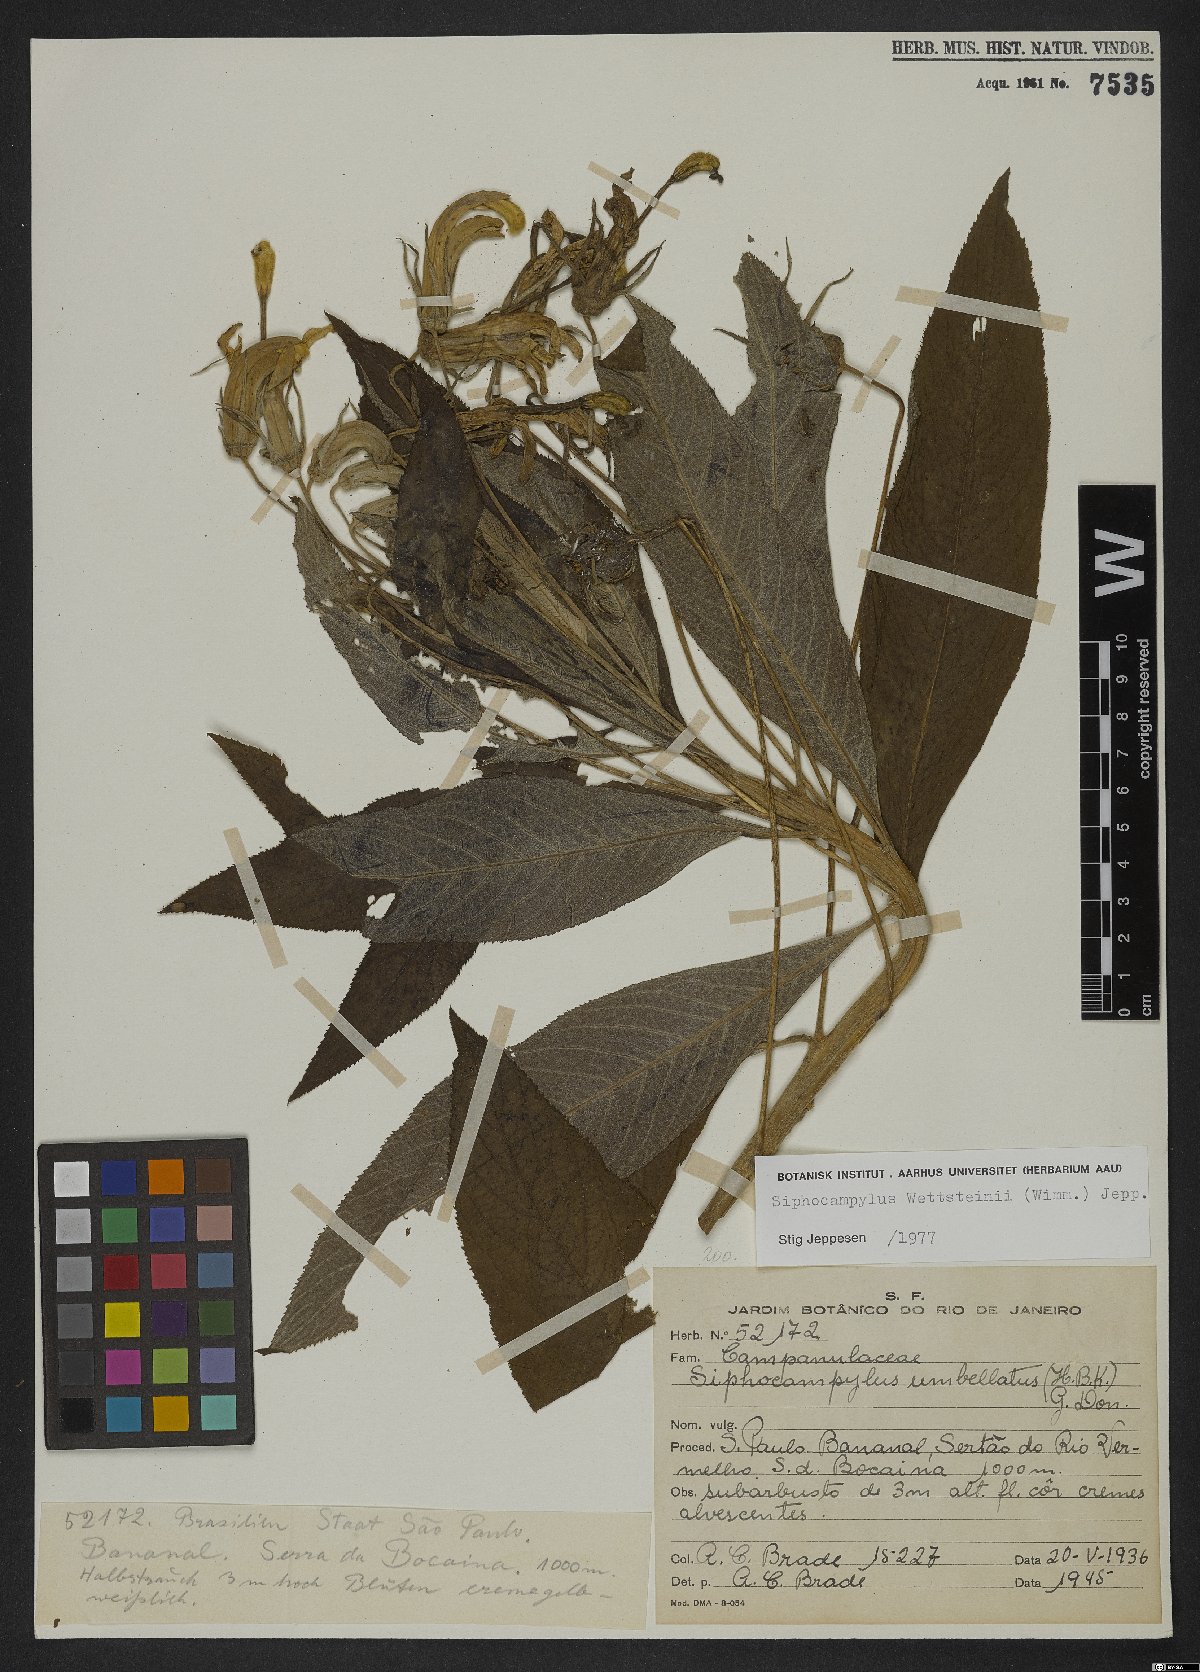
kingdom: Plantae
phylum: Tracheophyta
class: Magnoliopsida
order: Asterales
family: Campanulaceae
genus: Siphocampylus
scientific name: Siphocampylus
